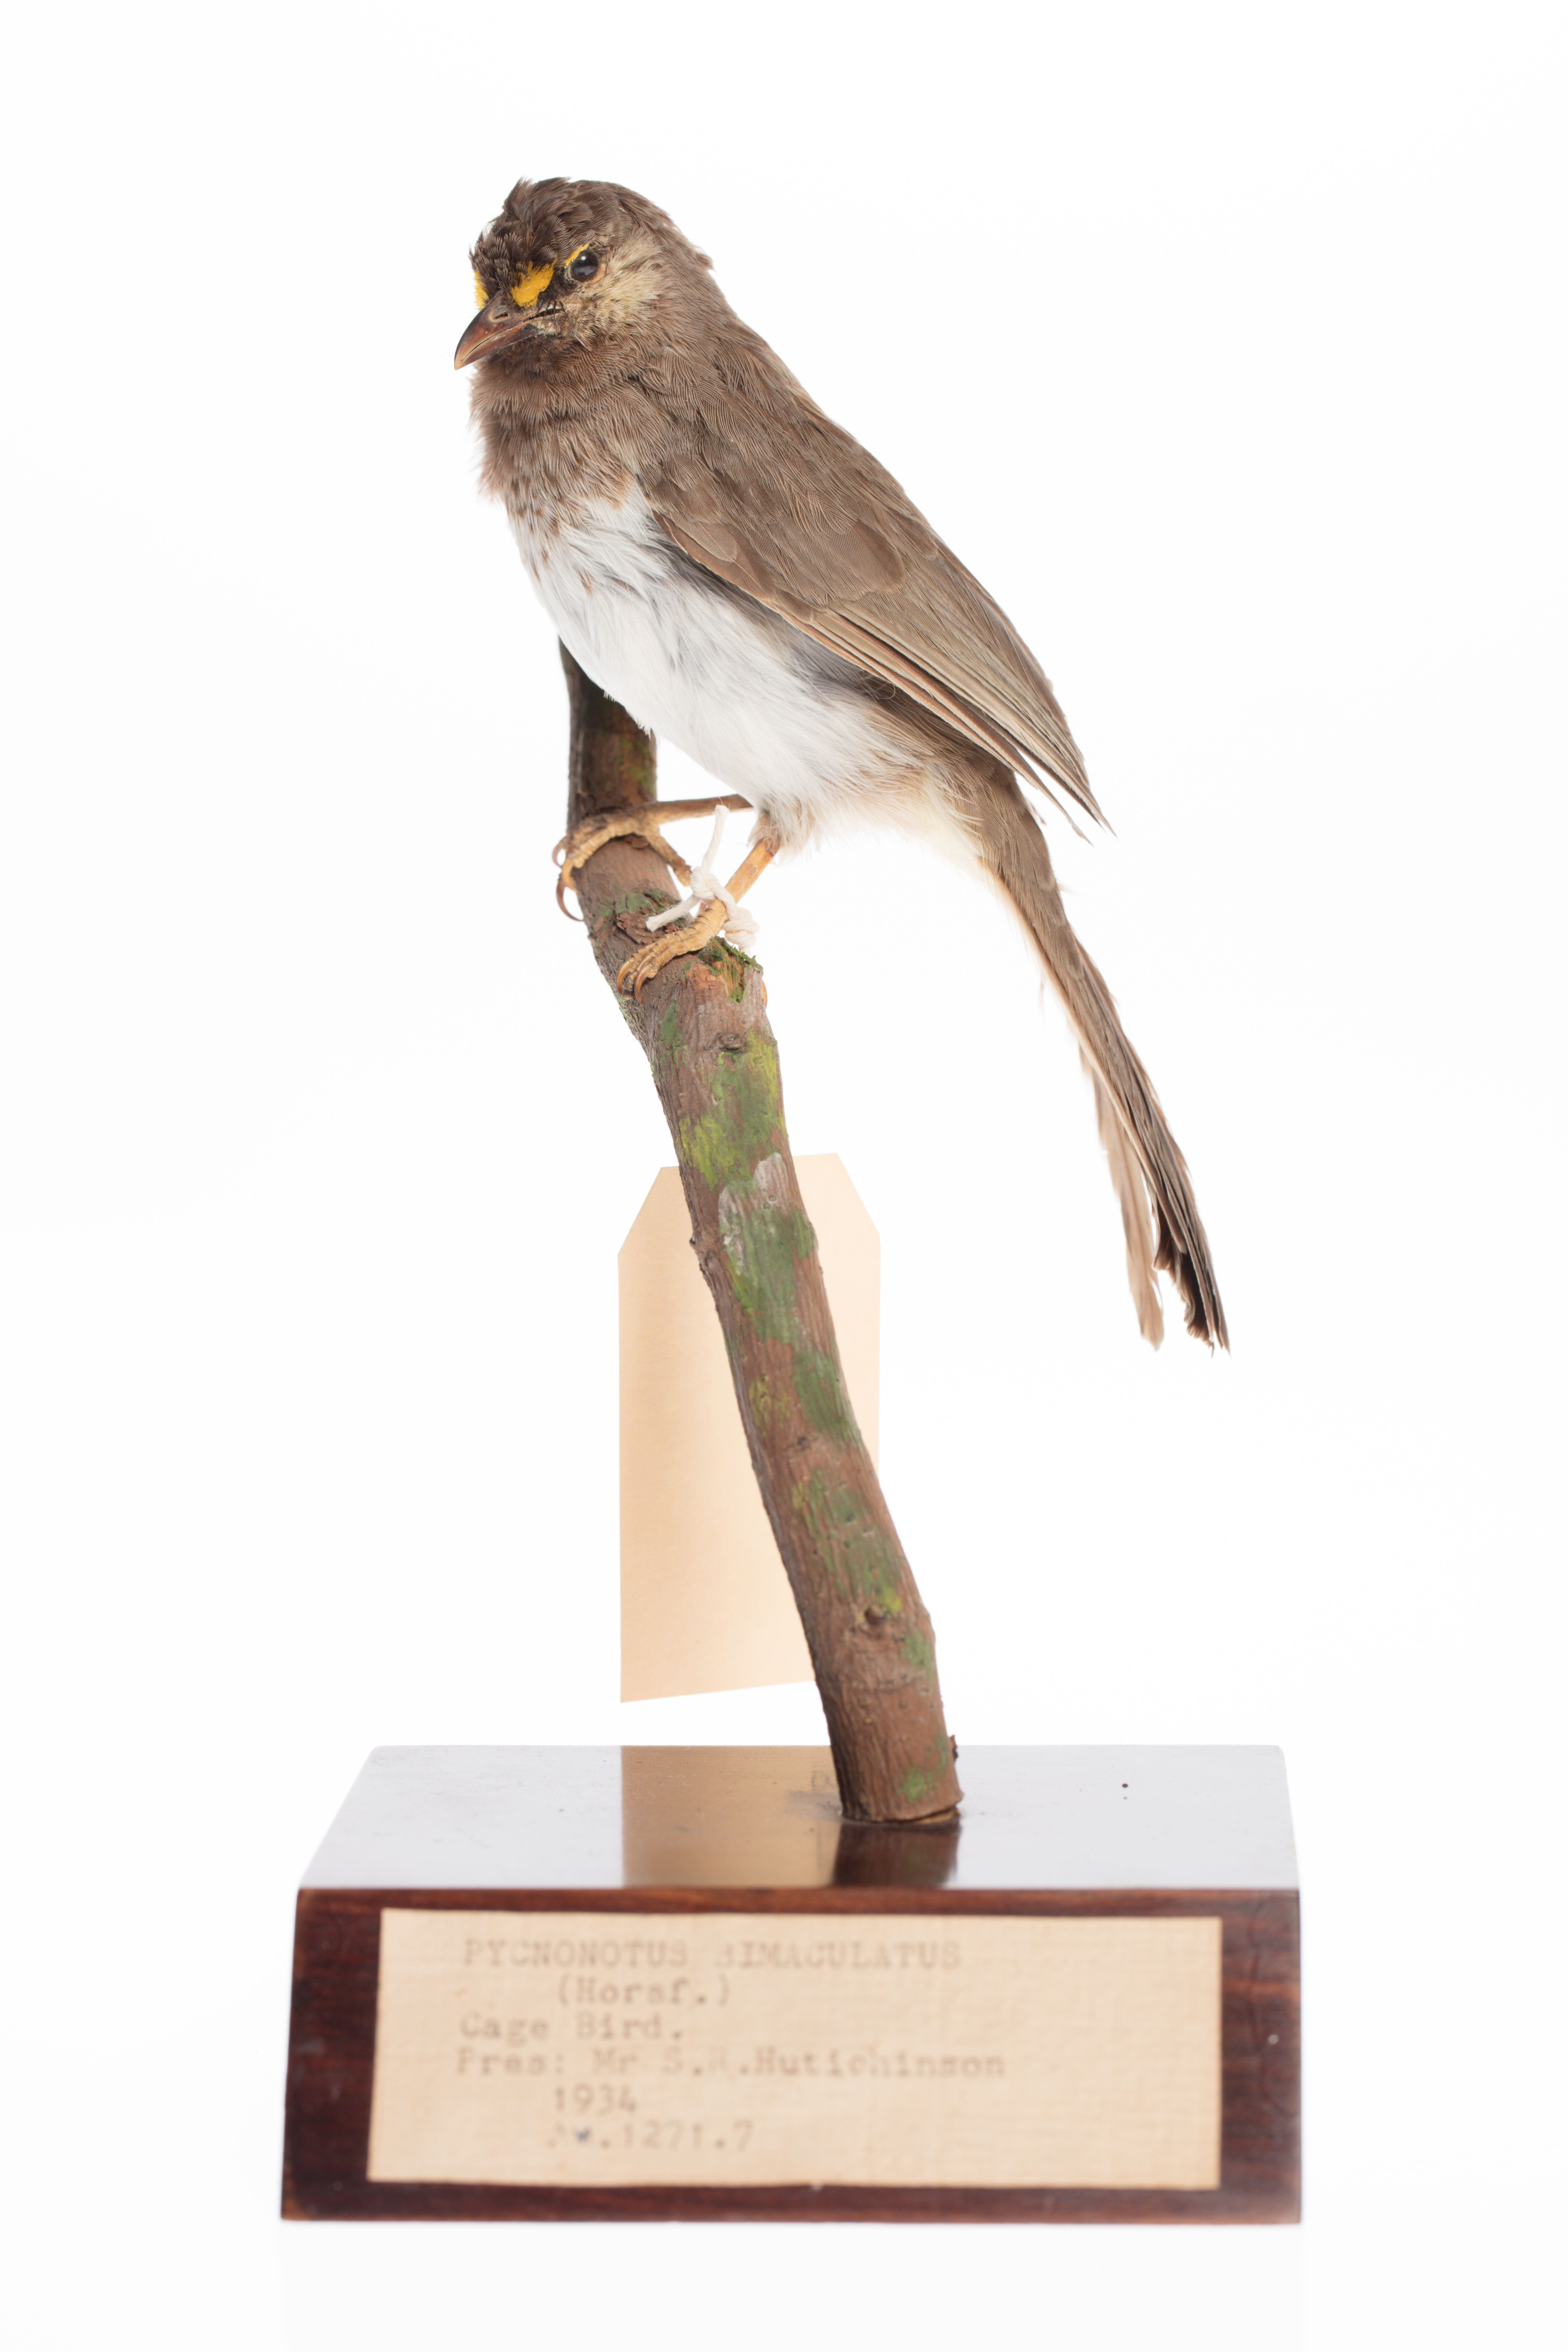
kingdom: Animalia
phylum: Chordata
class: Aves
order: Passeriformes
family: Pycnonotidae
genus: Pycnonotus
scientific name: Pycnonotus bimaculatus
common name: Orange-spotted bulbul
